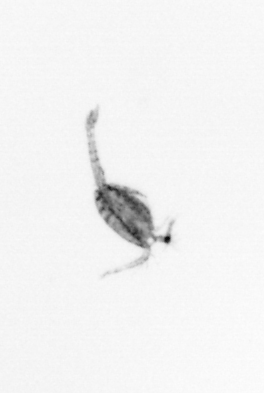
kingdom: Animalia
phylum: Arthropoda
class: Copepoda
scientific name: Copepoda
